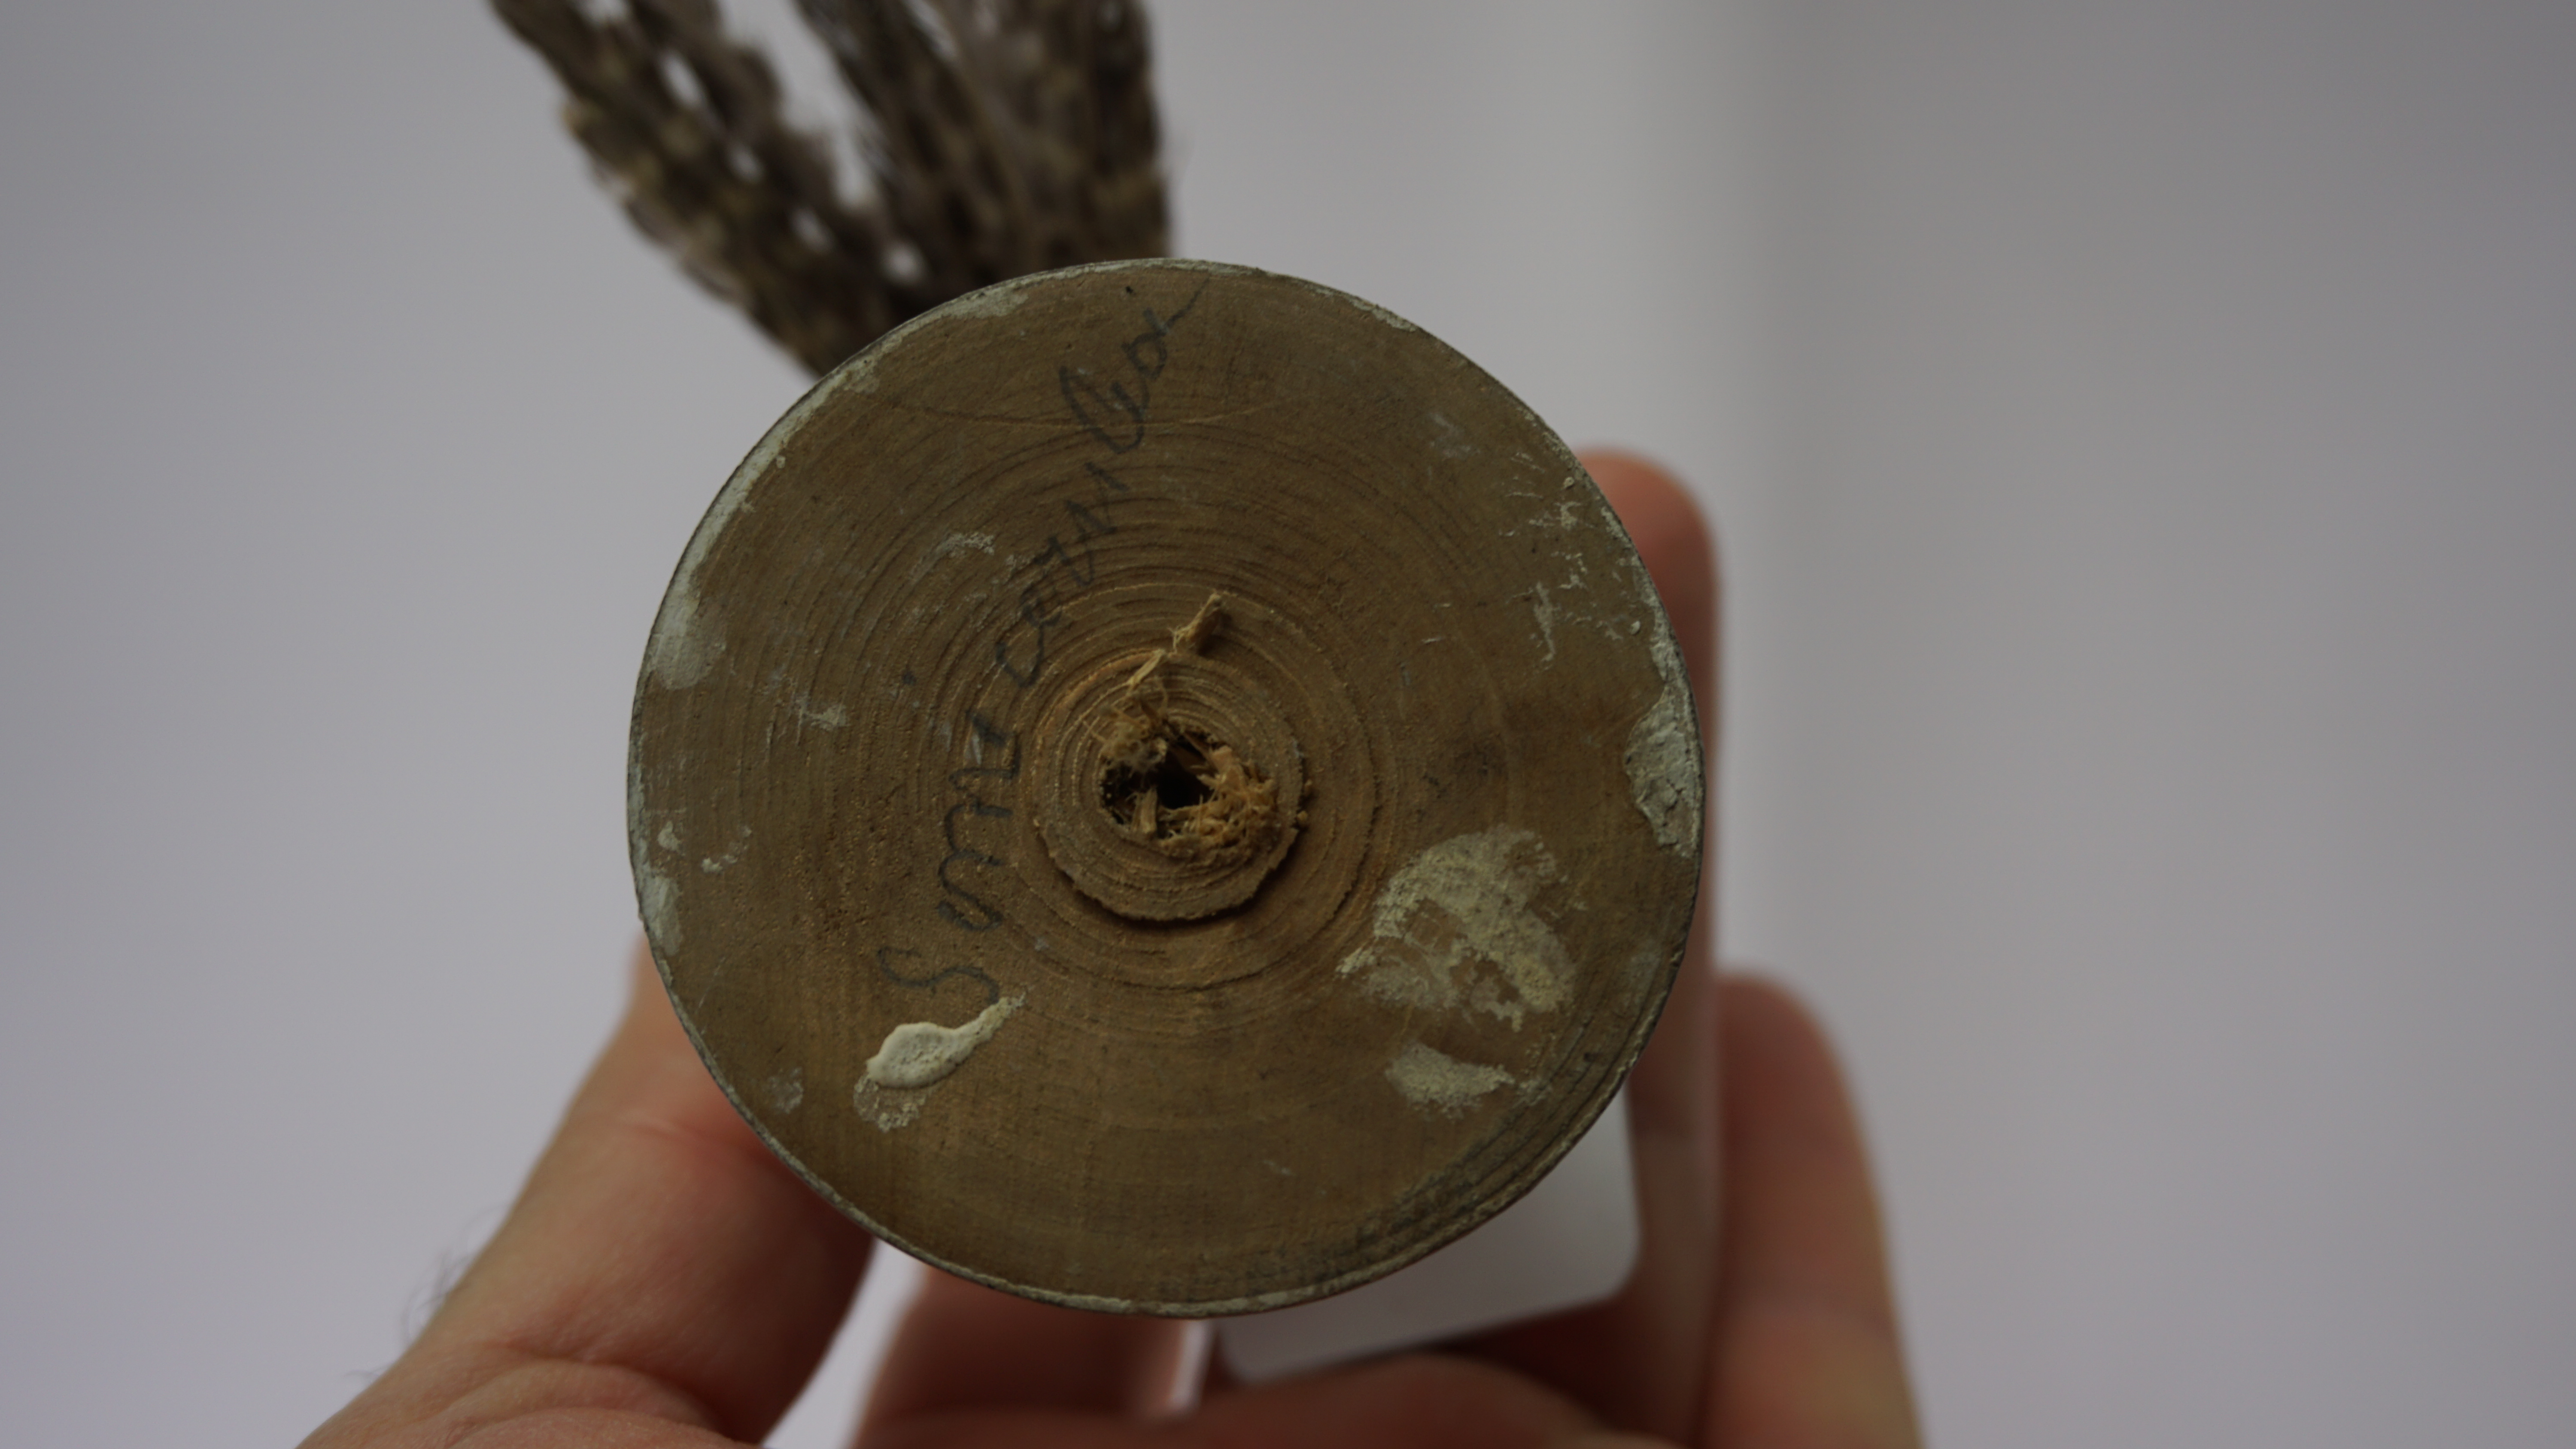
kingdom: Animalia
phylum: Chordata
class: Aves
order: Coraciiformes
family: Alcedinidae
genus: Lacedo
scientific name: Lacedo pulchella
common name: Banded kingfisher
